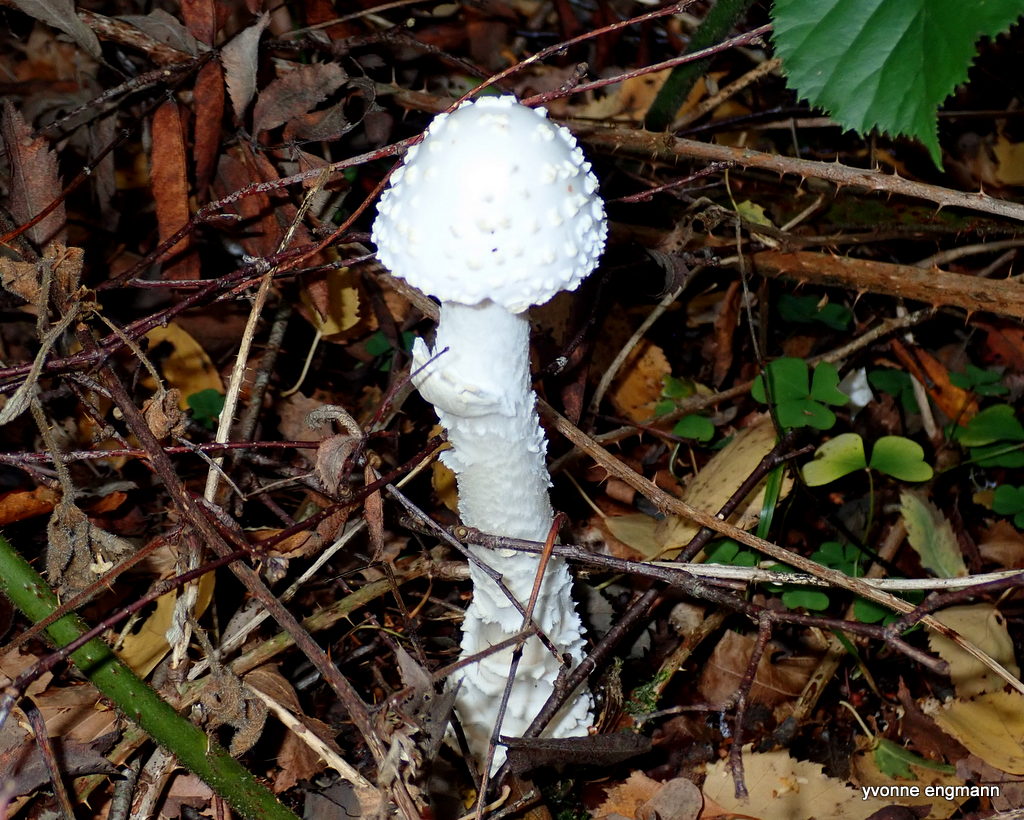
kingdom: Fungi
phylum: Basidiomycota
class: Agaricomycetes
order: Agaricales
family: Amanitaceae
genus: Amanita
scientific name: Amanita muscaria
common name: rød fluesvamp
